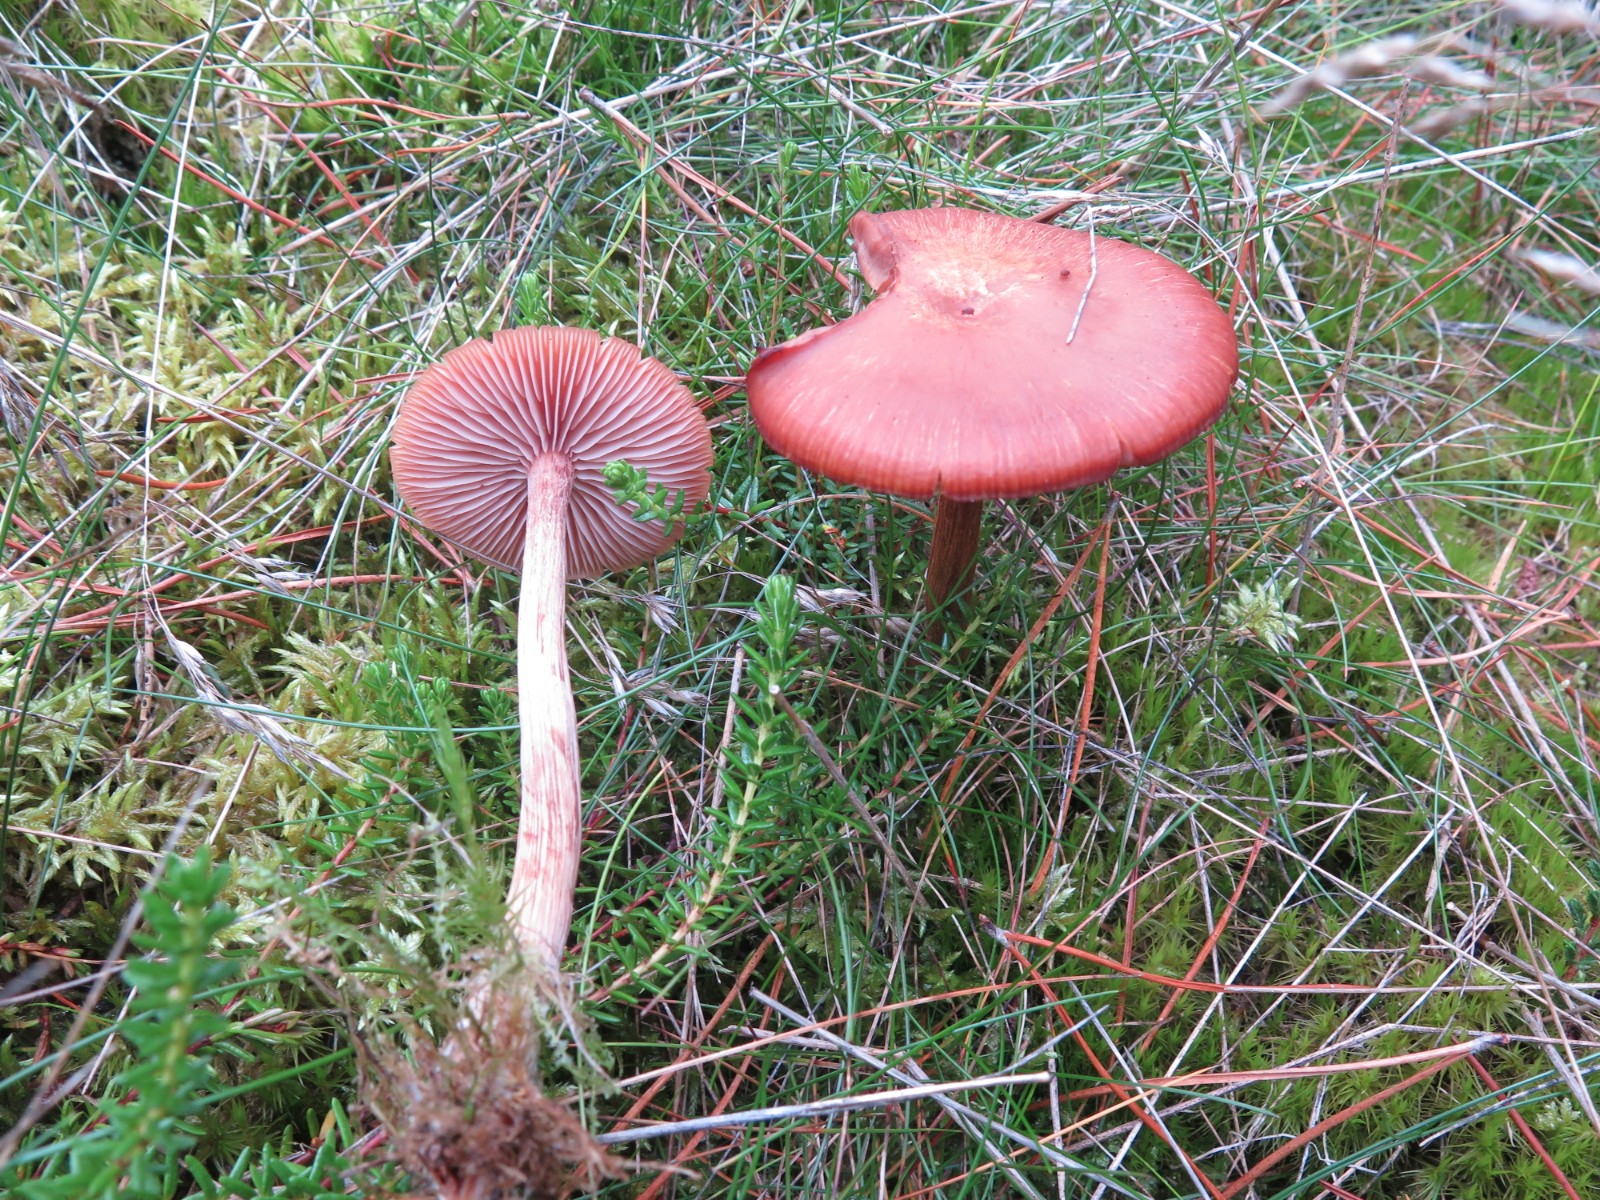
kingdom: Fungi
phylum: Basidiomycota
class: Agaricomycetes
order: Agaricales
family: Hydnangiaceae
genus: Laccaria
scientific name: Laccaria bicolor
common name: tvefarvet ametysthat
